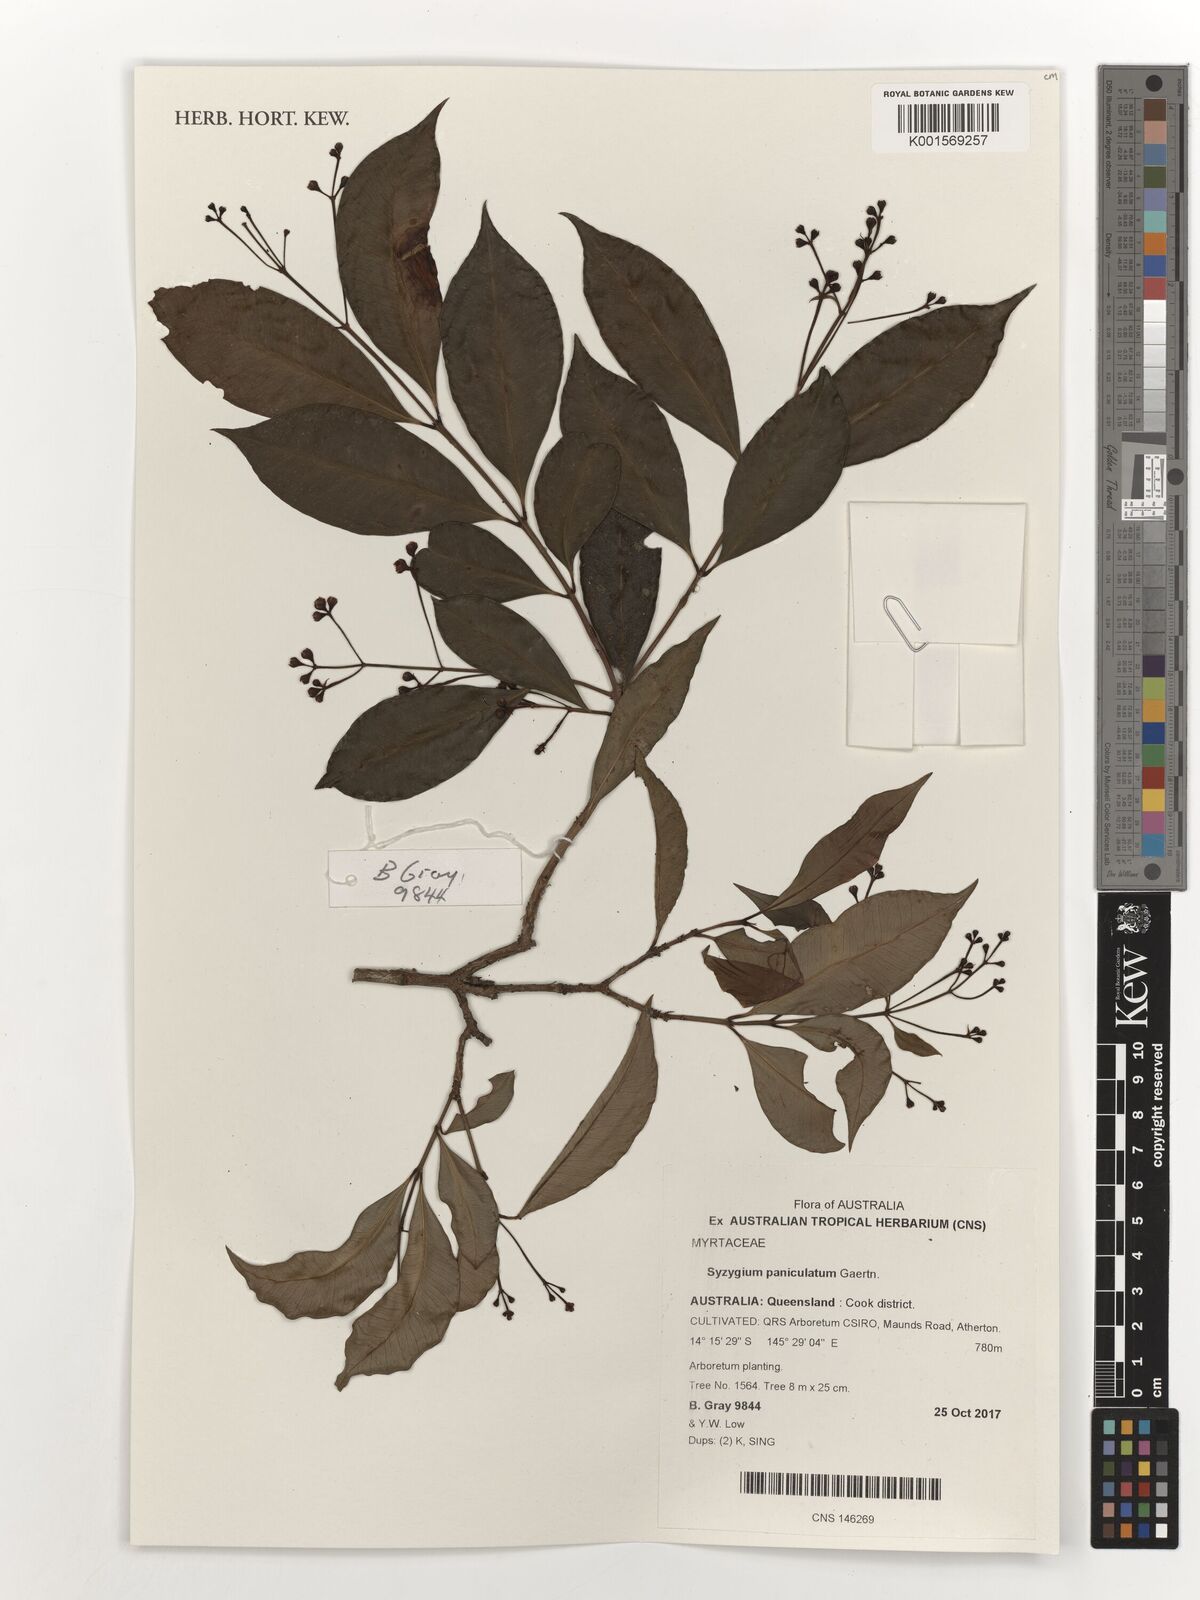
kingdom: Plantae
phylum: Tracheophyta
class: Magnoliopsida
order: Myrtales
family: Myrtaceae
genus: Syzygium
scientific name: Syzygium suborbiculare
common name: Red bush apple
